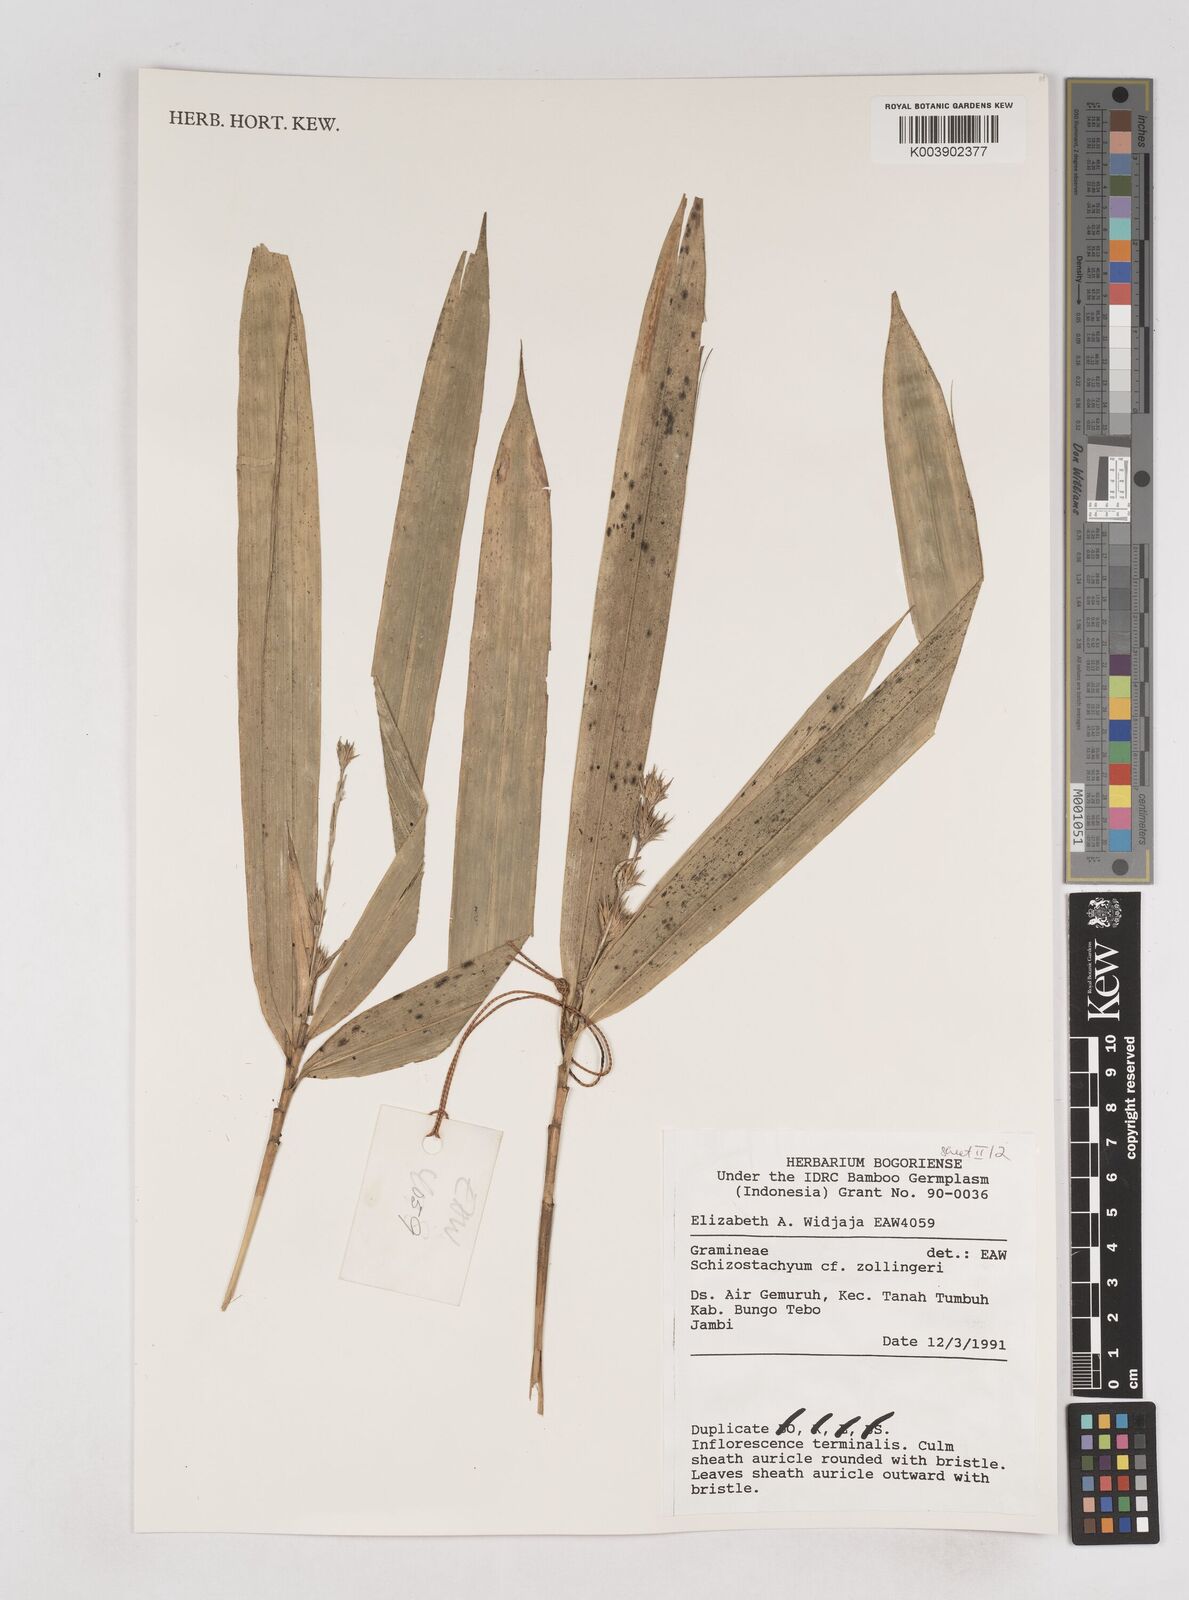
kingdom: Plantae
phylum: Tracheophyta
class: Liliopsida
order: Poales
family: Poaceae
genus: Schizostachyum
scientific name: Schizostachyum zollingeri
